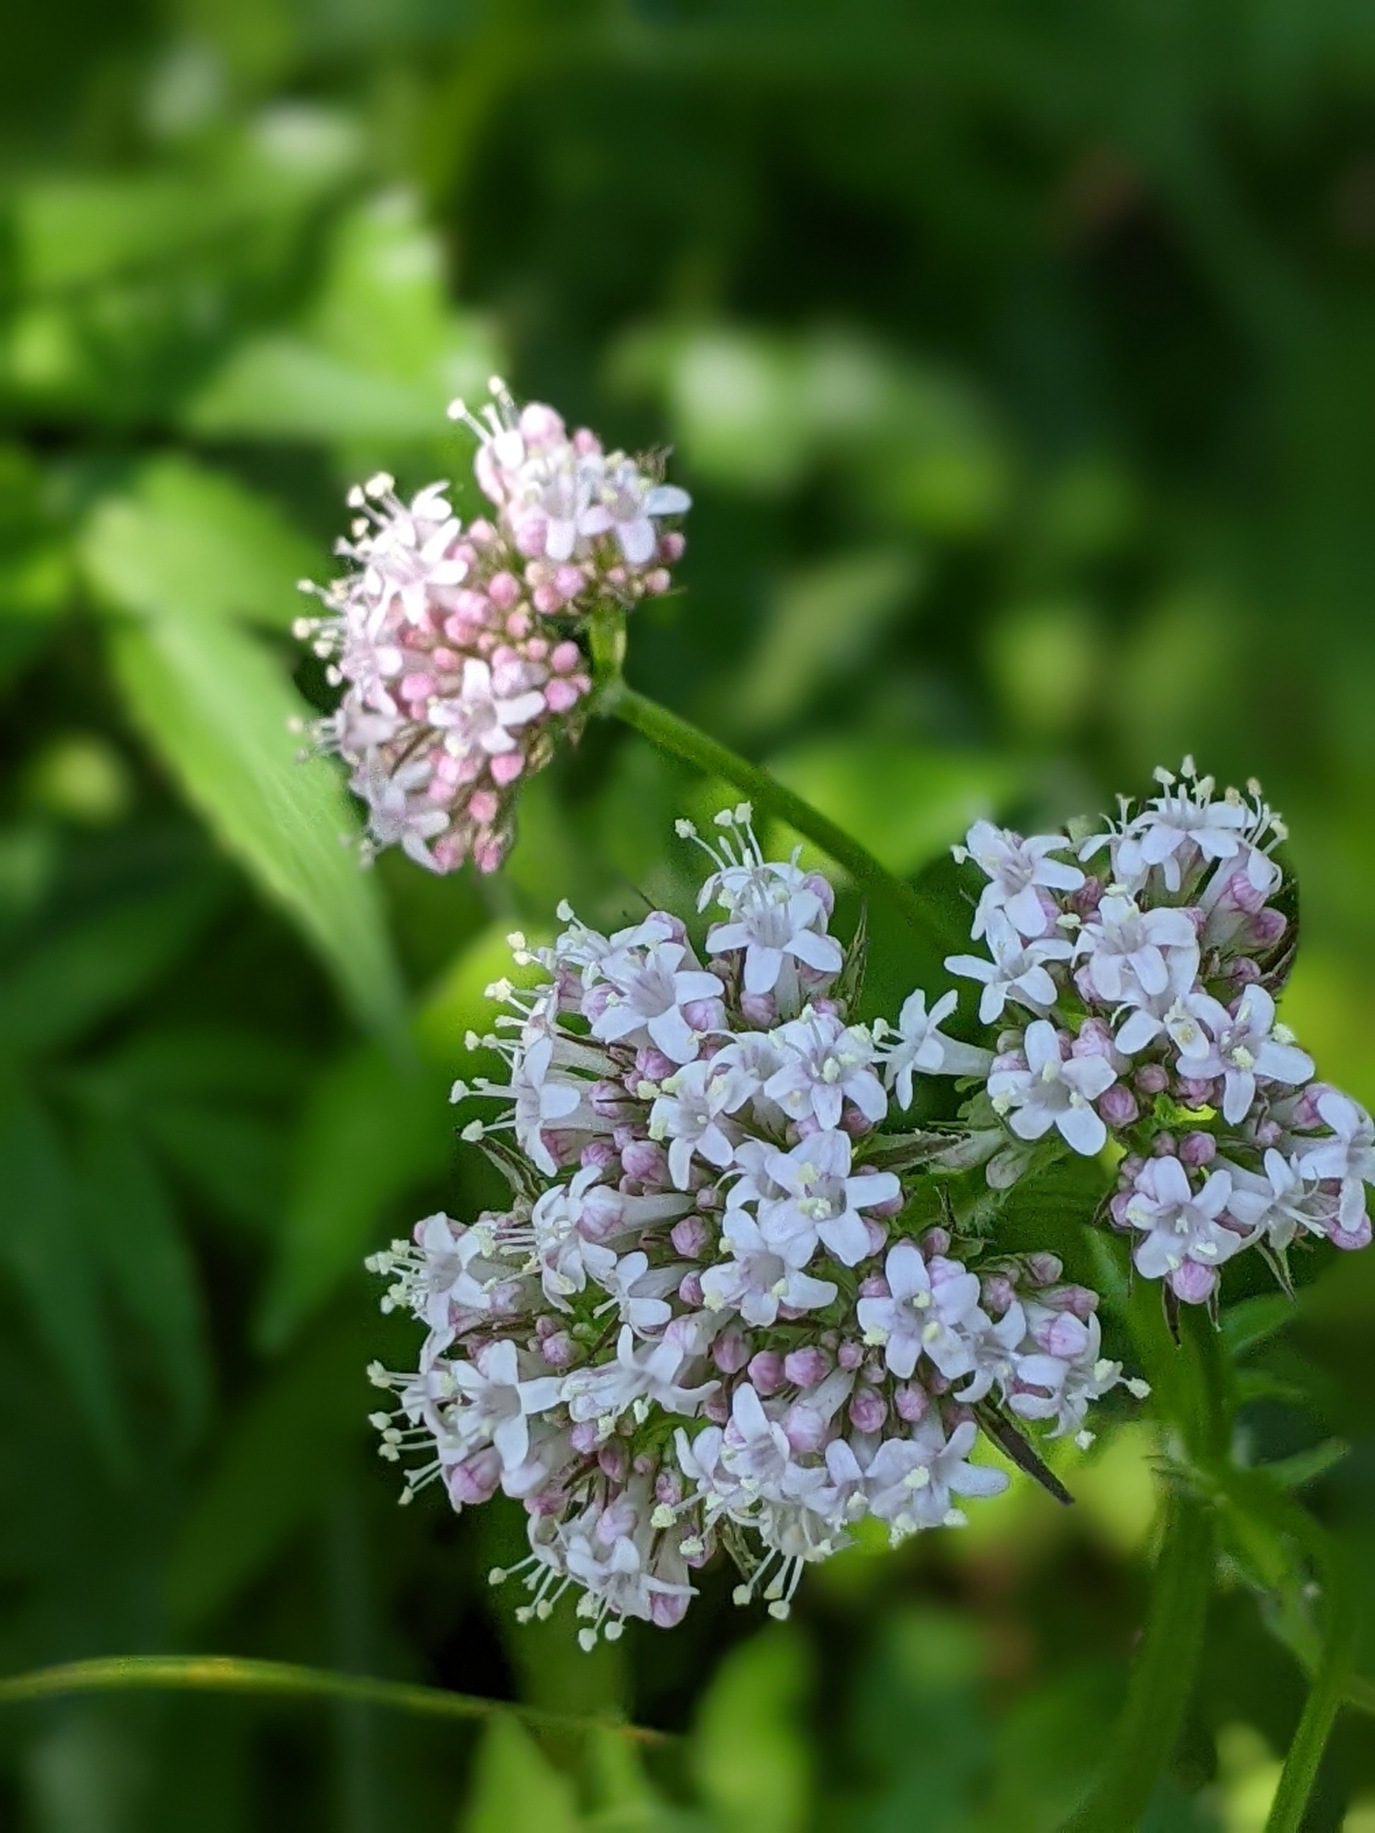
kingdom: Plantae
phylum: Tracheophyta
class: Magnoliopsida
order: Dipsacales
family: Caprifoliaceae
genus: Valeriana
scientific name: Valeriana sambucifolia
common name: Hyldebladet baldrian
